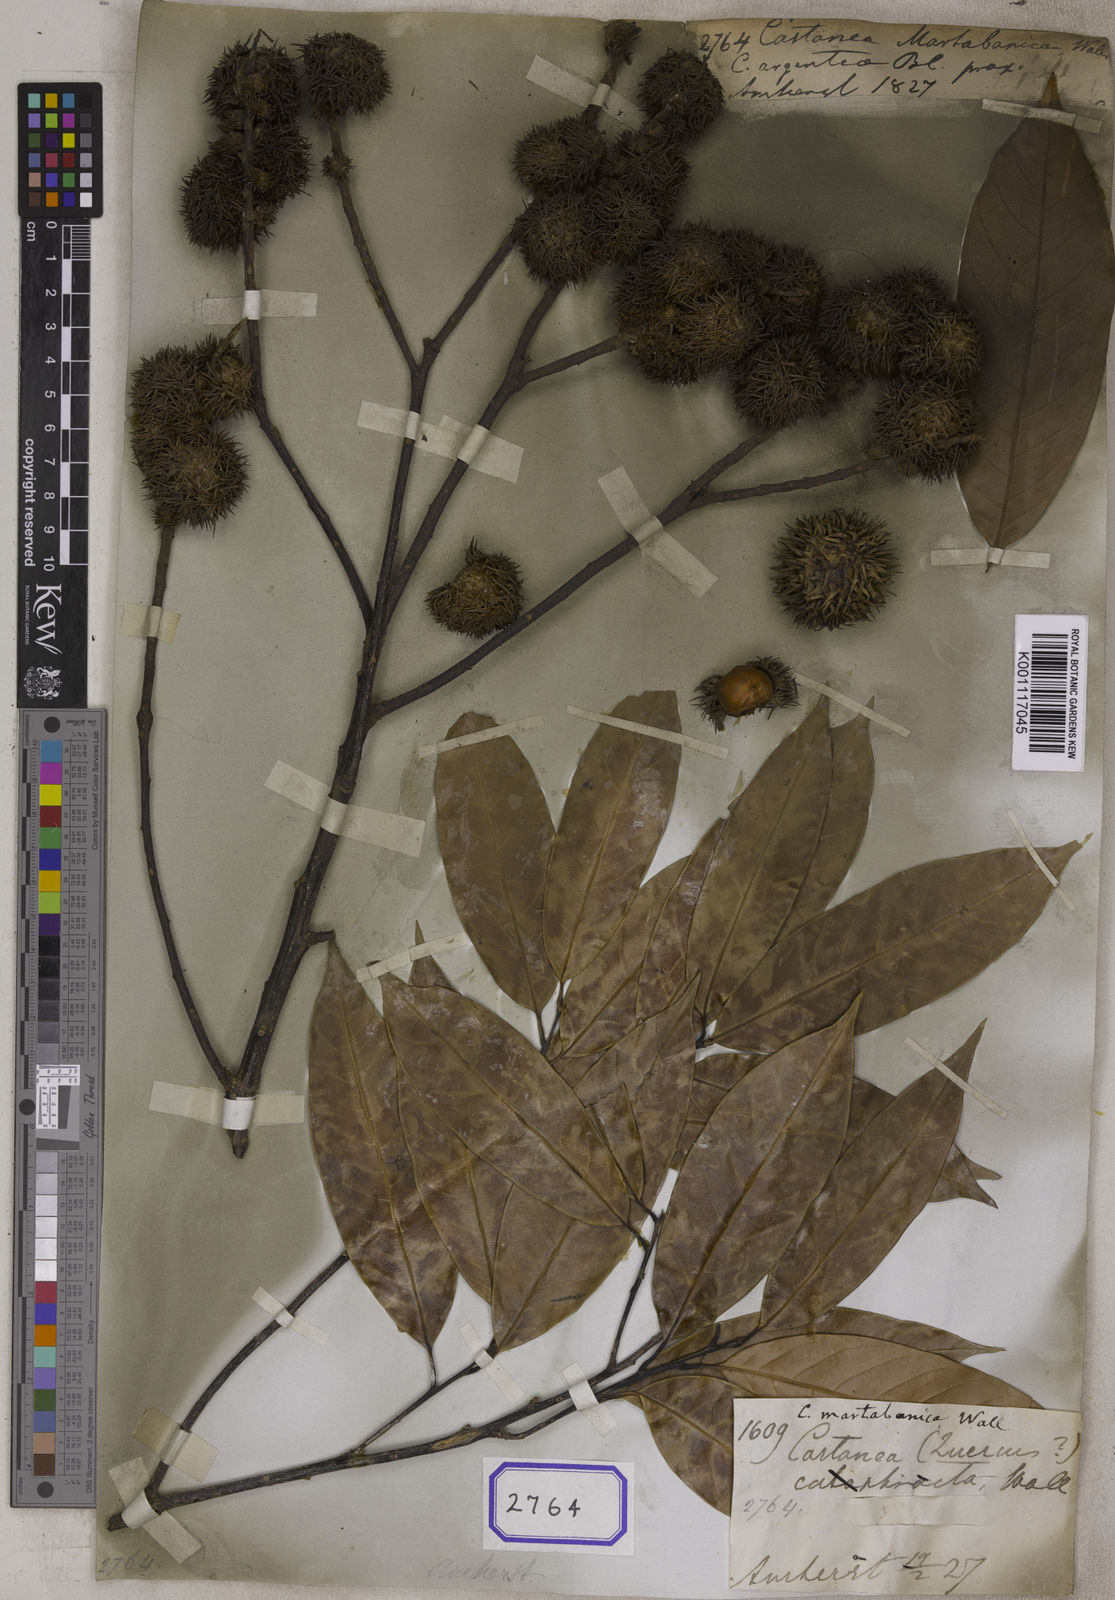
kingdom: Plantae
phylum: Tracheophyta
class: Magnoliopsida
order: Fagales
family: Fagaceae
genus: Castanea
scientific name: Castanea
